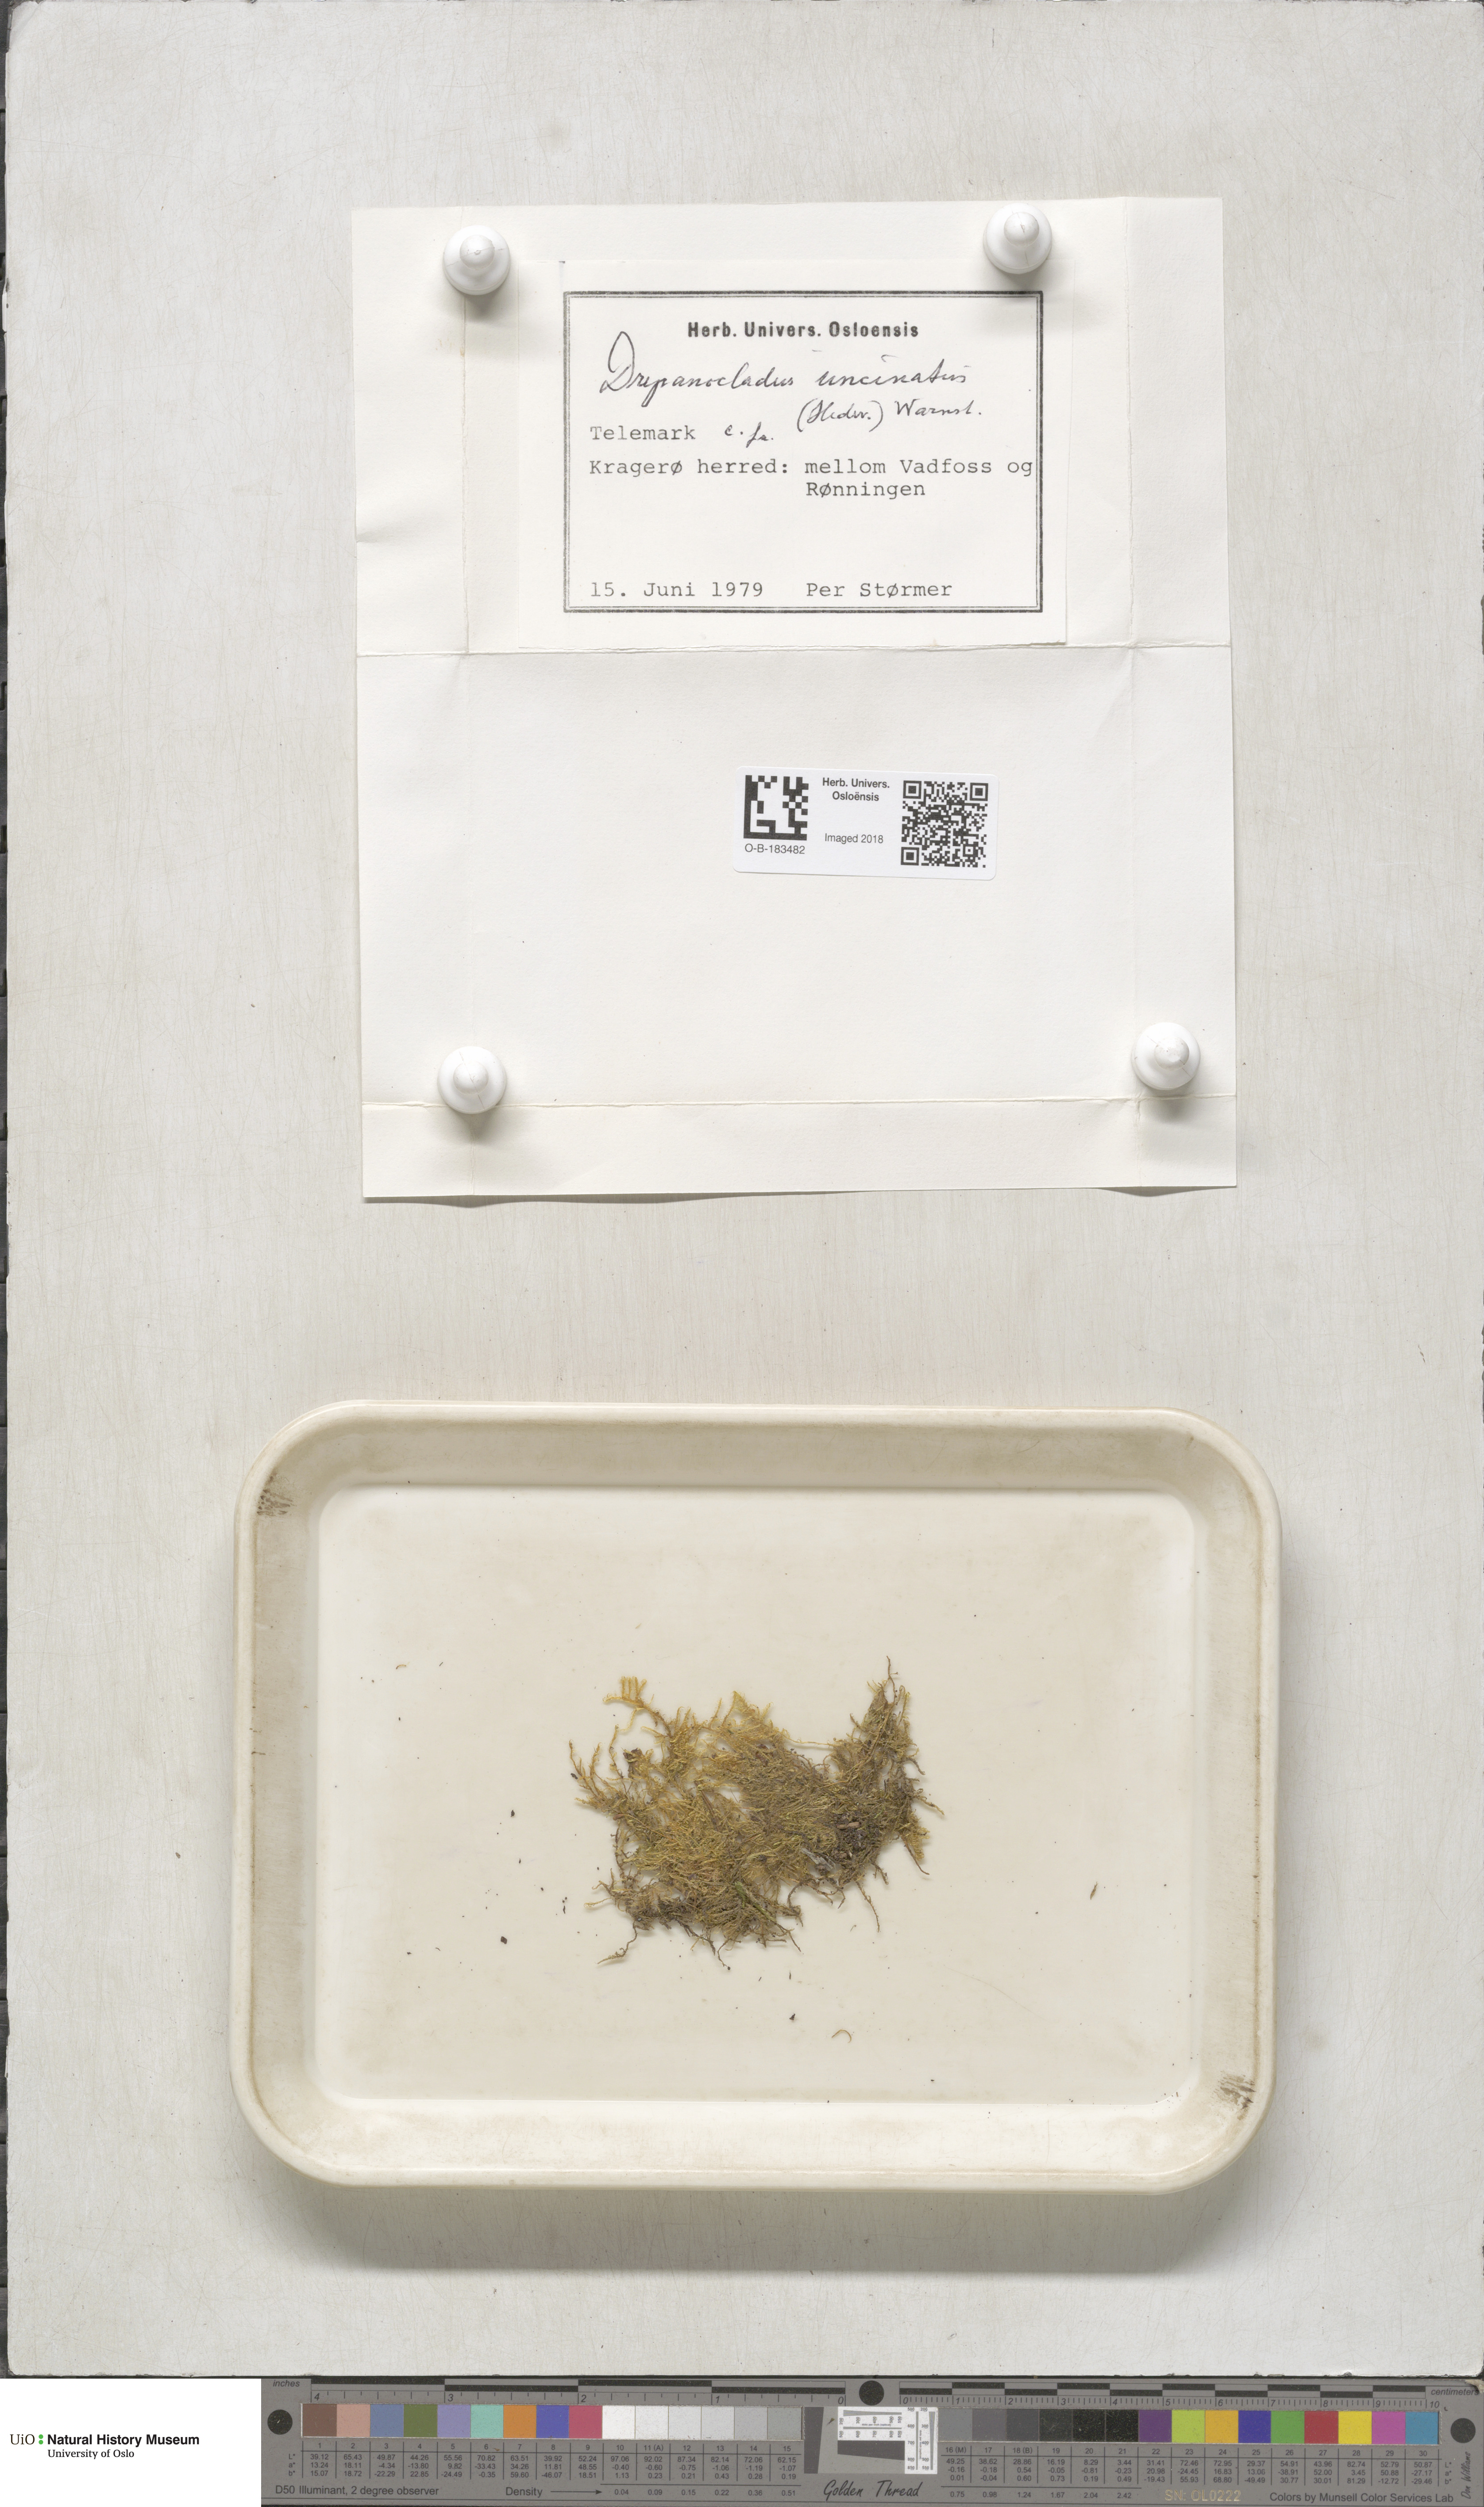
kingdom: Plantae
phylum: Bryophyta
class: Bryopsida
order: Hypnales
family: Scorpidiaceae
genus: Sanionia
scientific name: Sanionia uncinata
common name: Sickle moss
